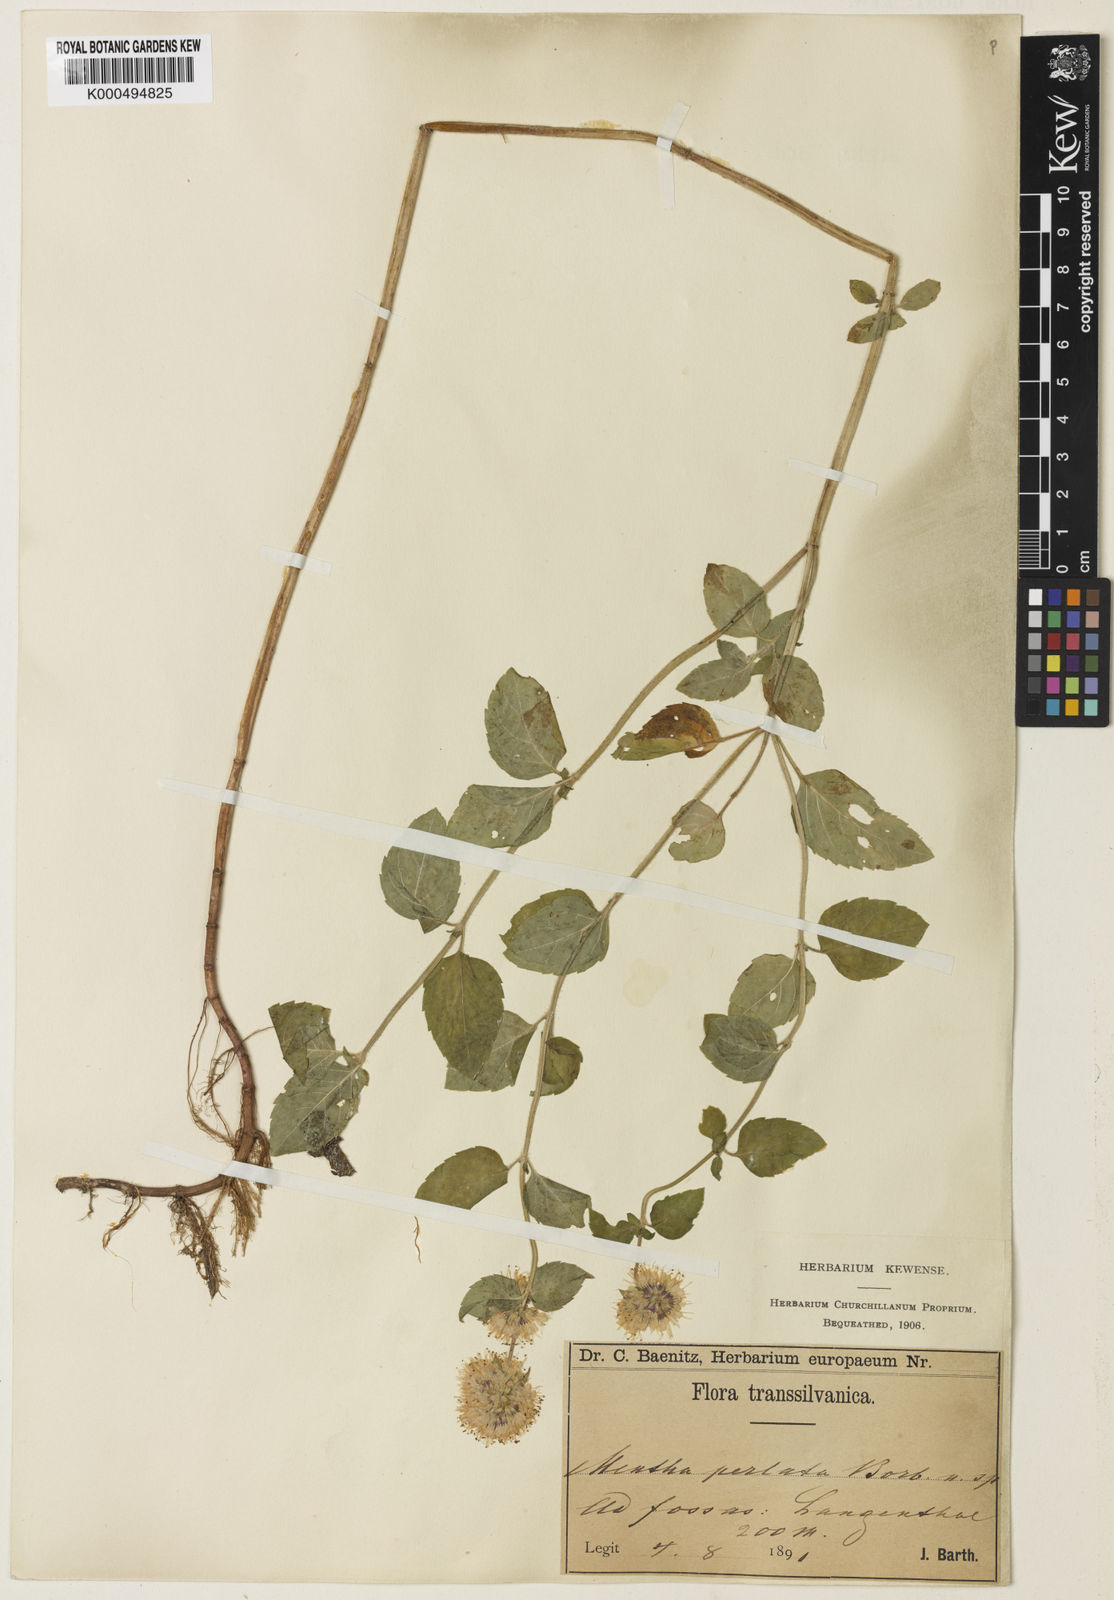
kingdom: Plantae
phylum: Tracheophyta
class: Magnoliopsida
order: Lamiales
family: Lamiaceae
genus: Mentha
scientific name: Mentha aquatica
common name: Water mint
